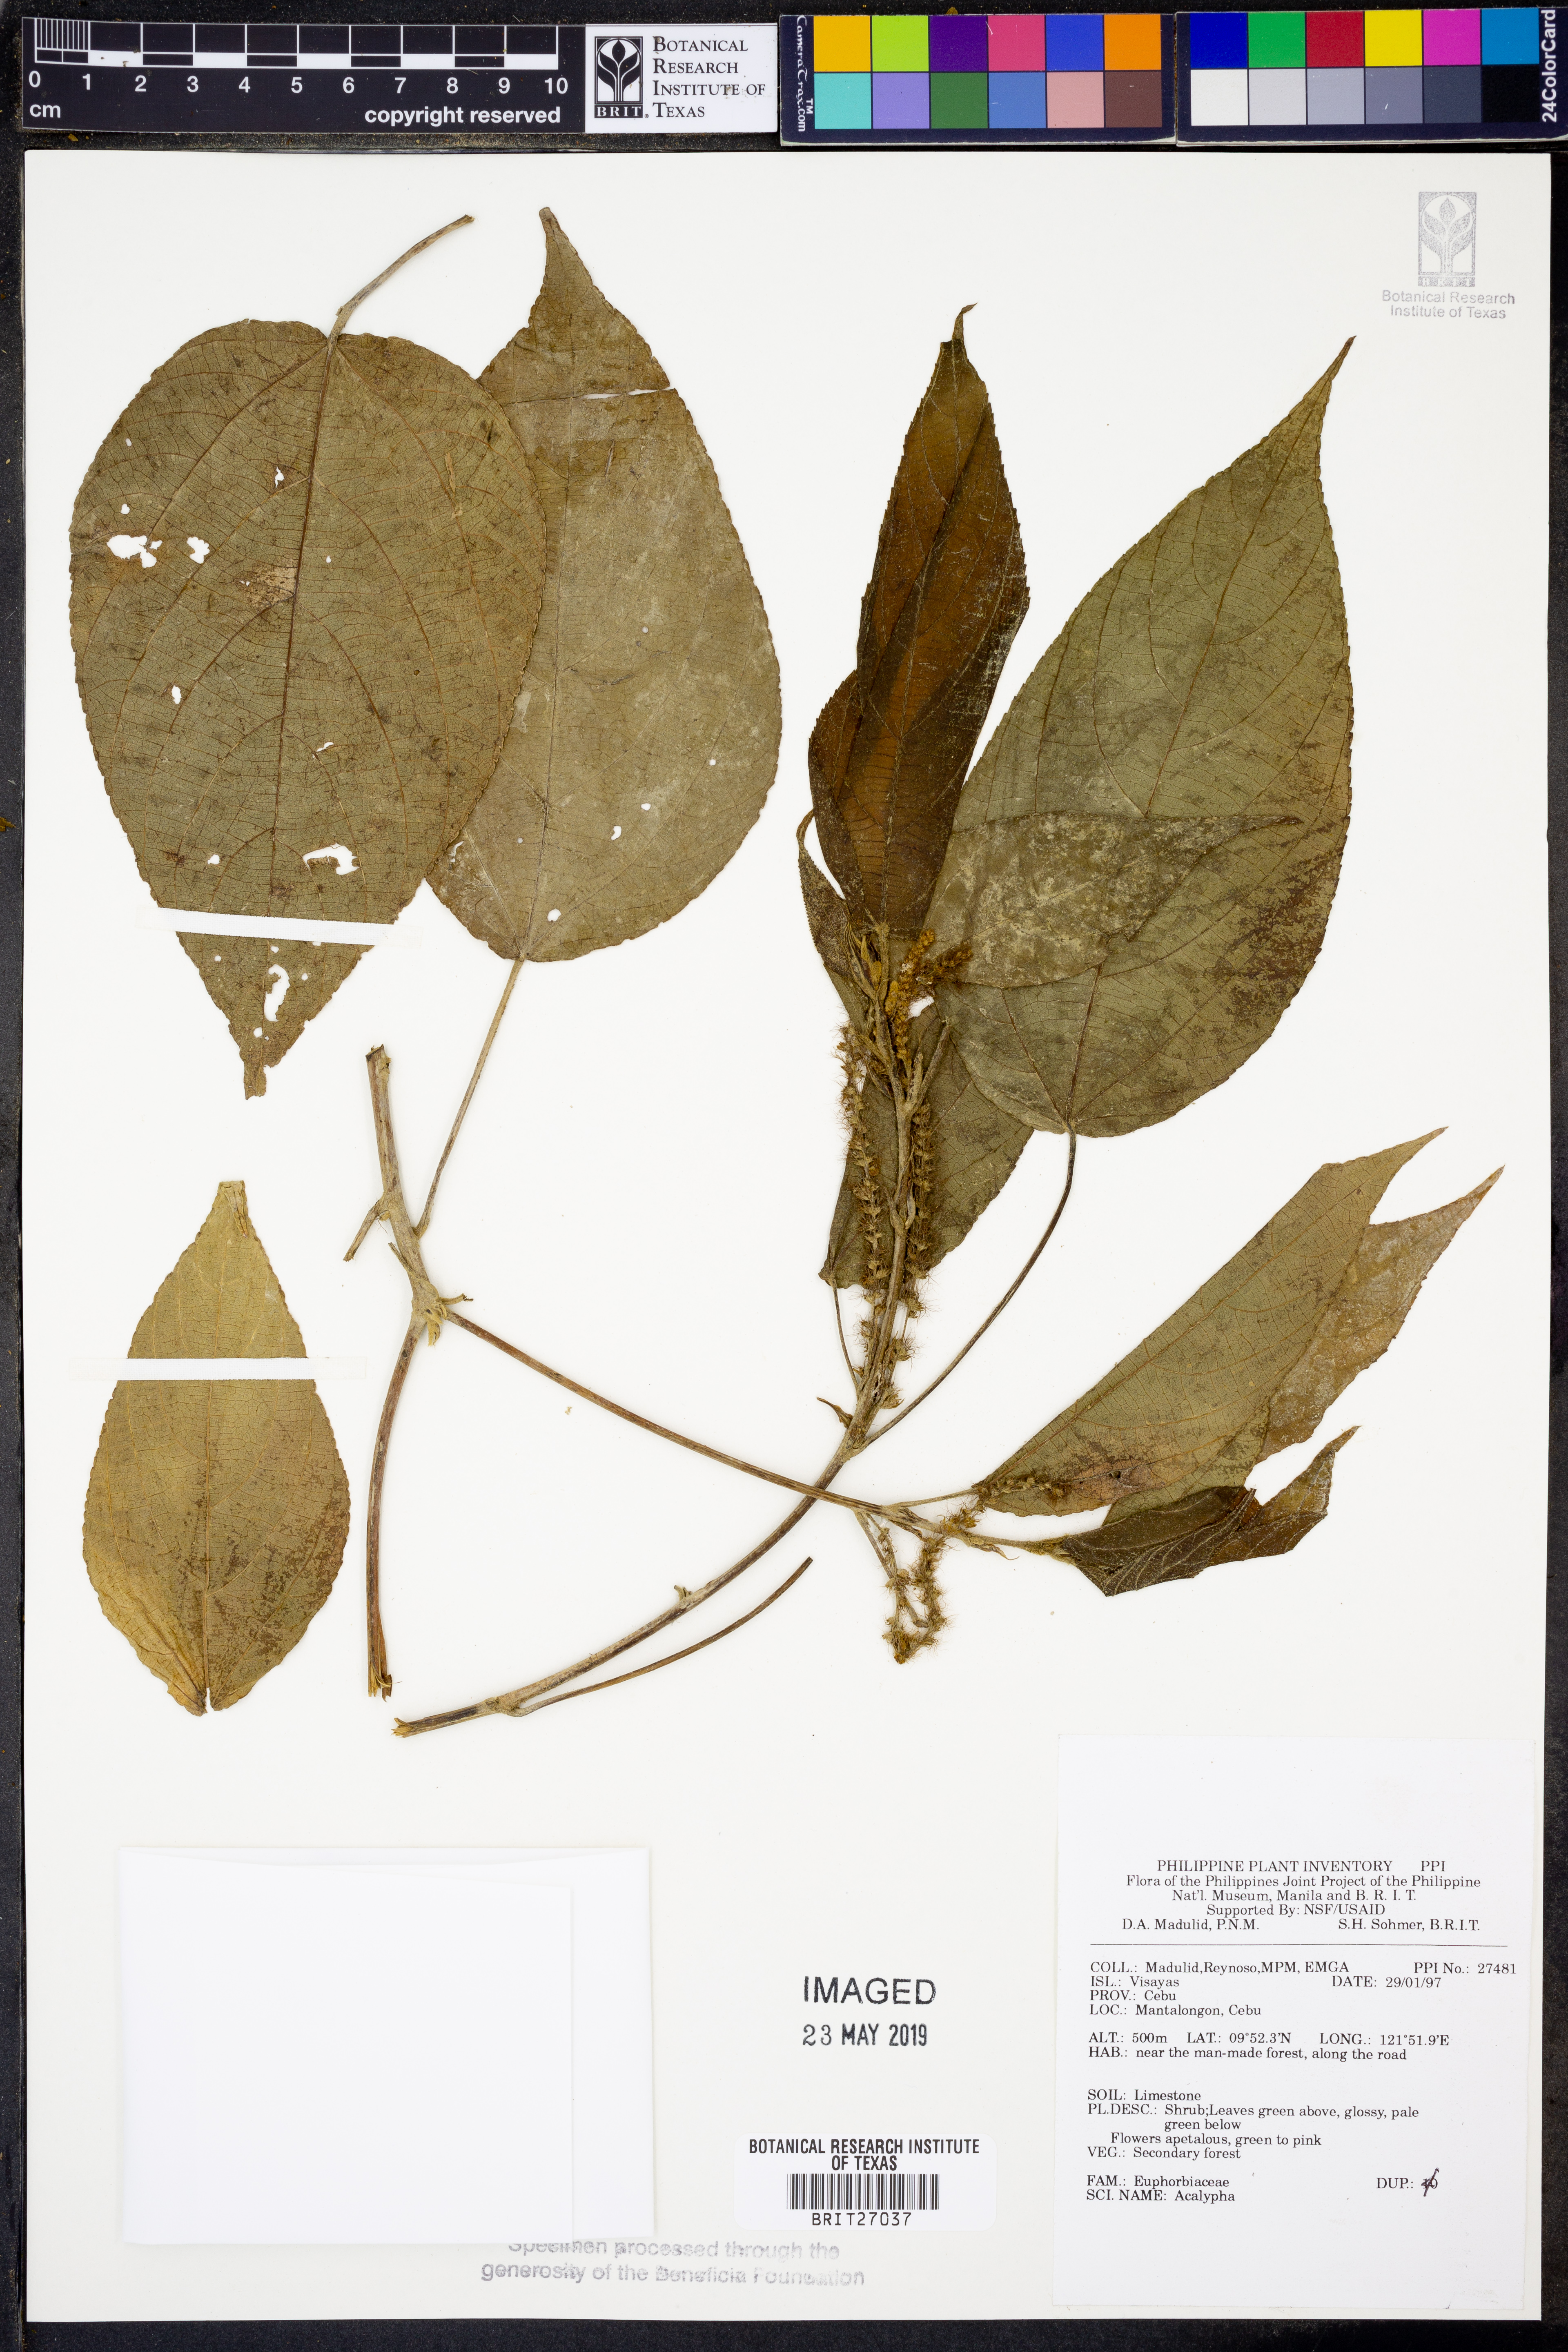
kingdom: Plantae
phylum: Tracheophyta
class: Magnoliopsida
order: Malpighiales
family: Euphorbiaceae
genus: Acalypha
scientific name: Acalypha
